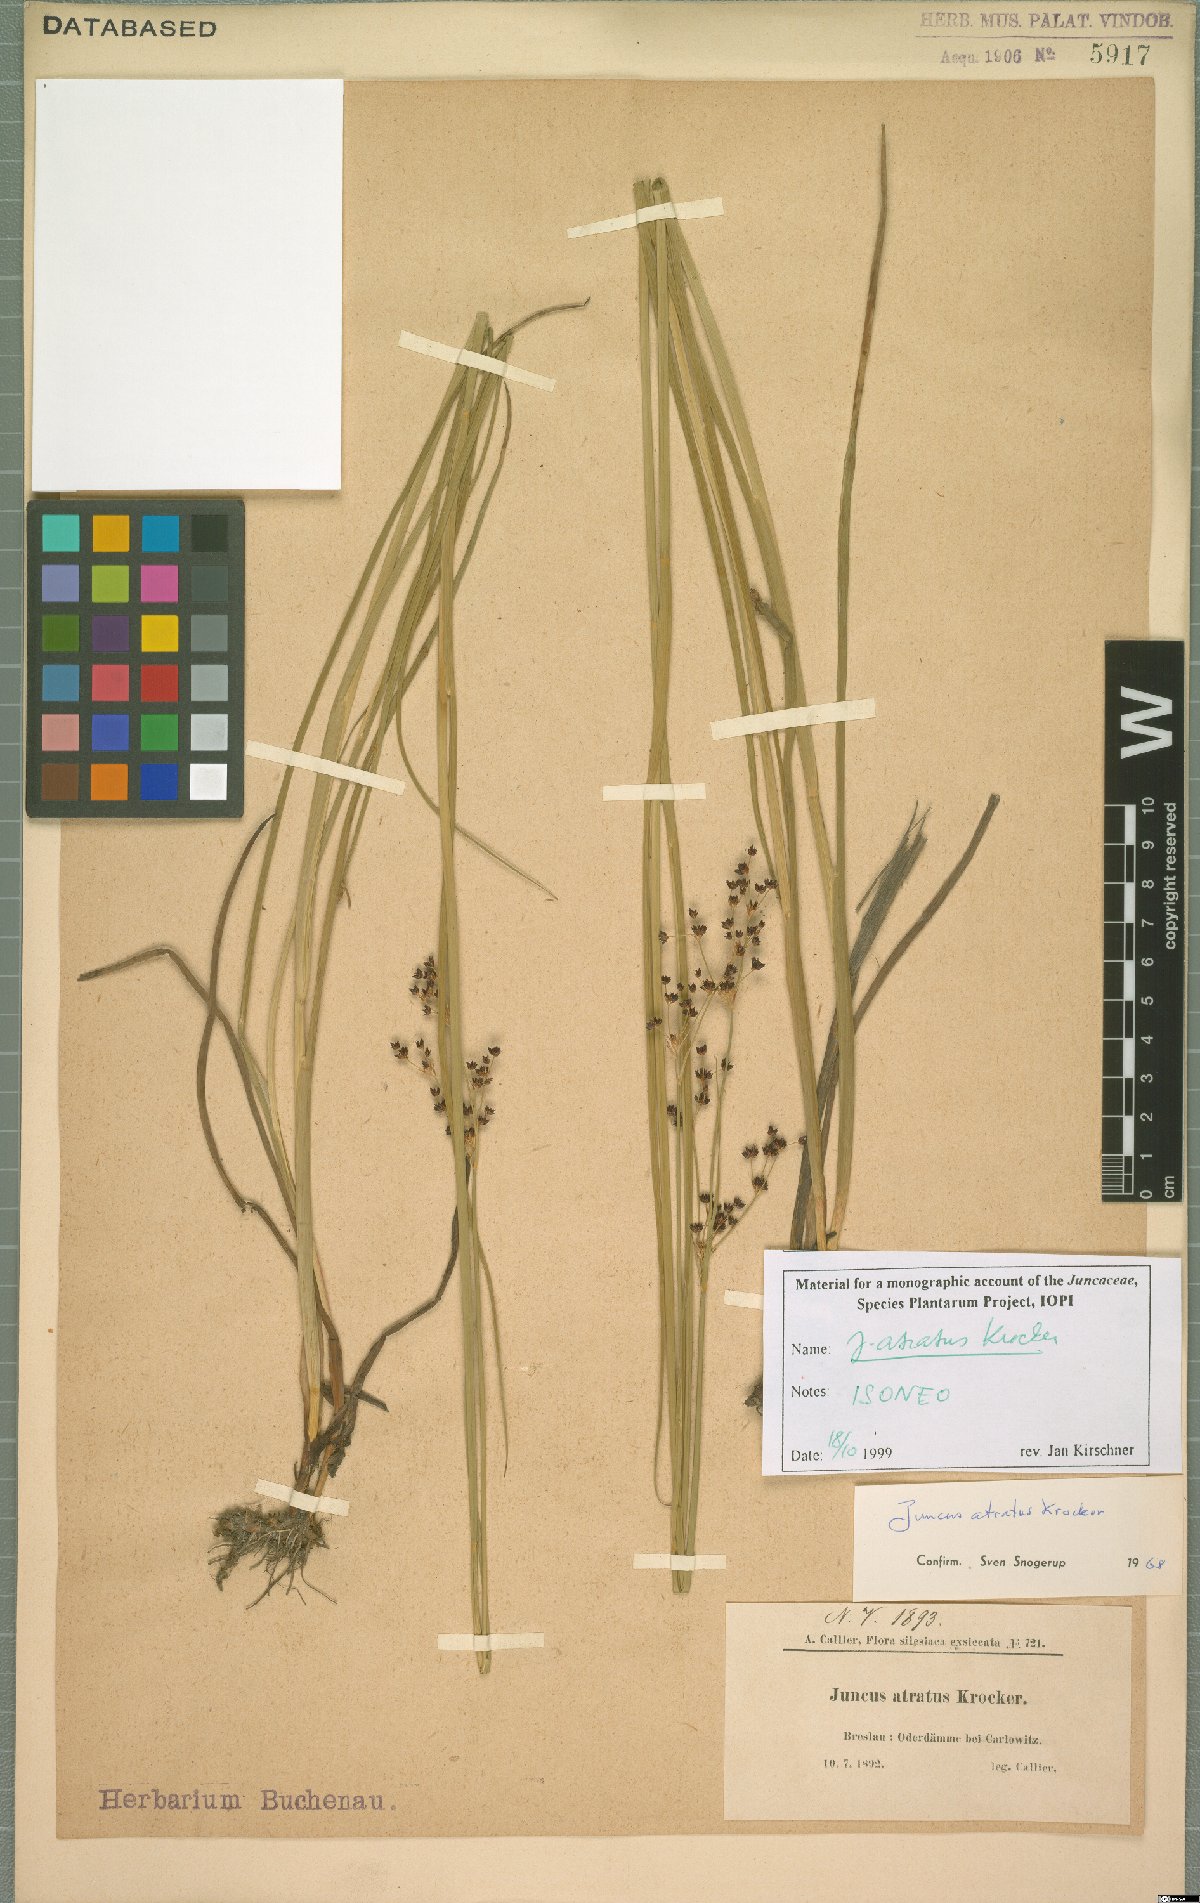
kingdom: Plantae
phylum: Tracheophyta
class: Liliopsida
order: Poales
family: Juncaceae
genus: Juncus
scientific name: Juncus atratus
